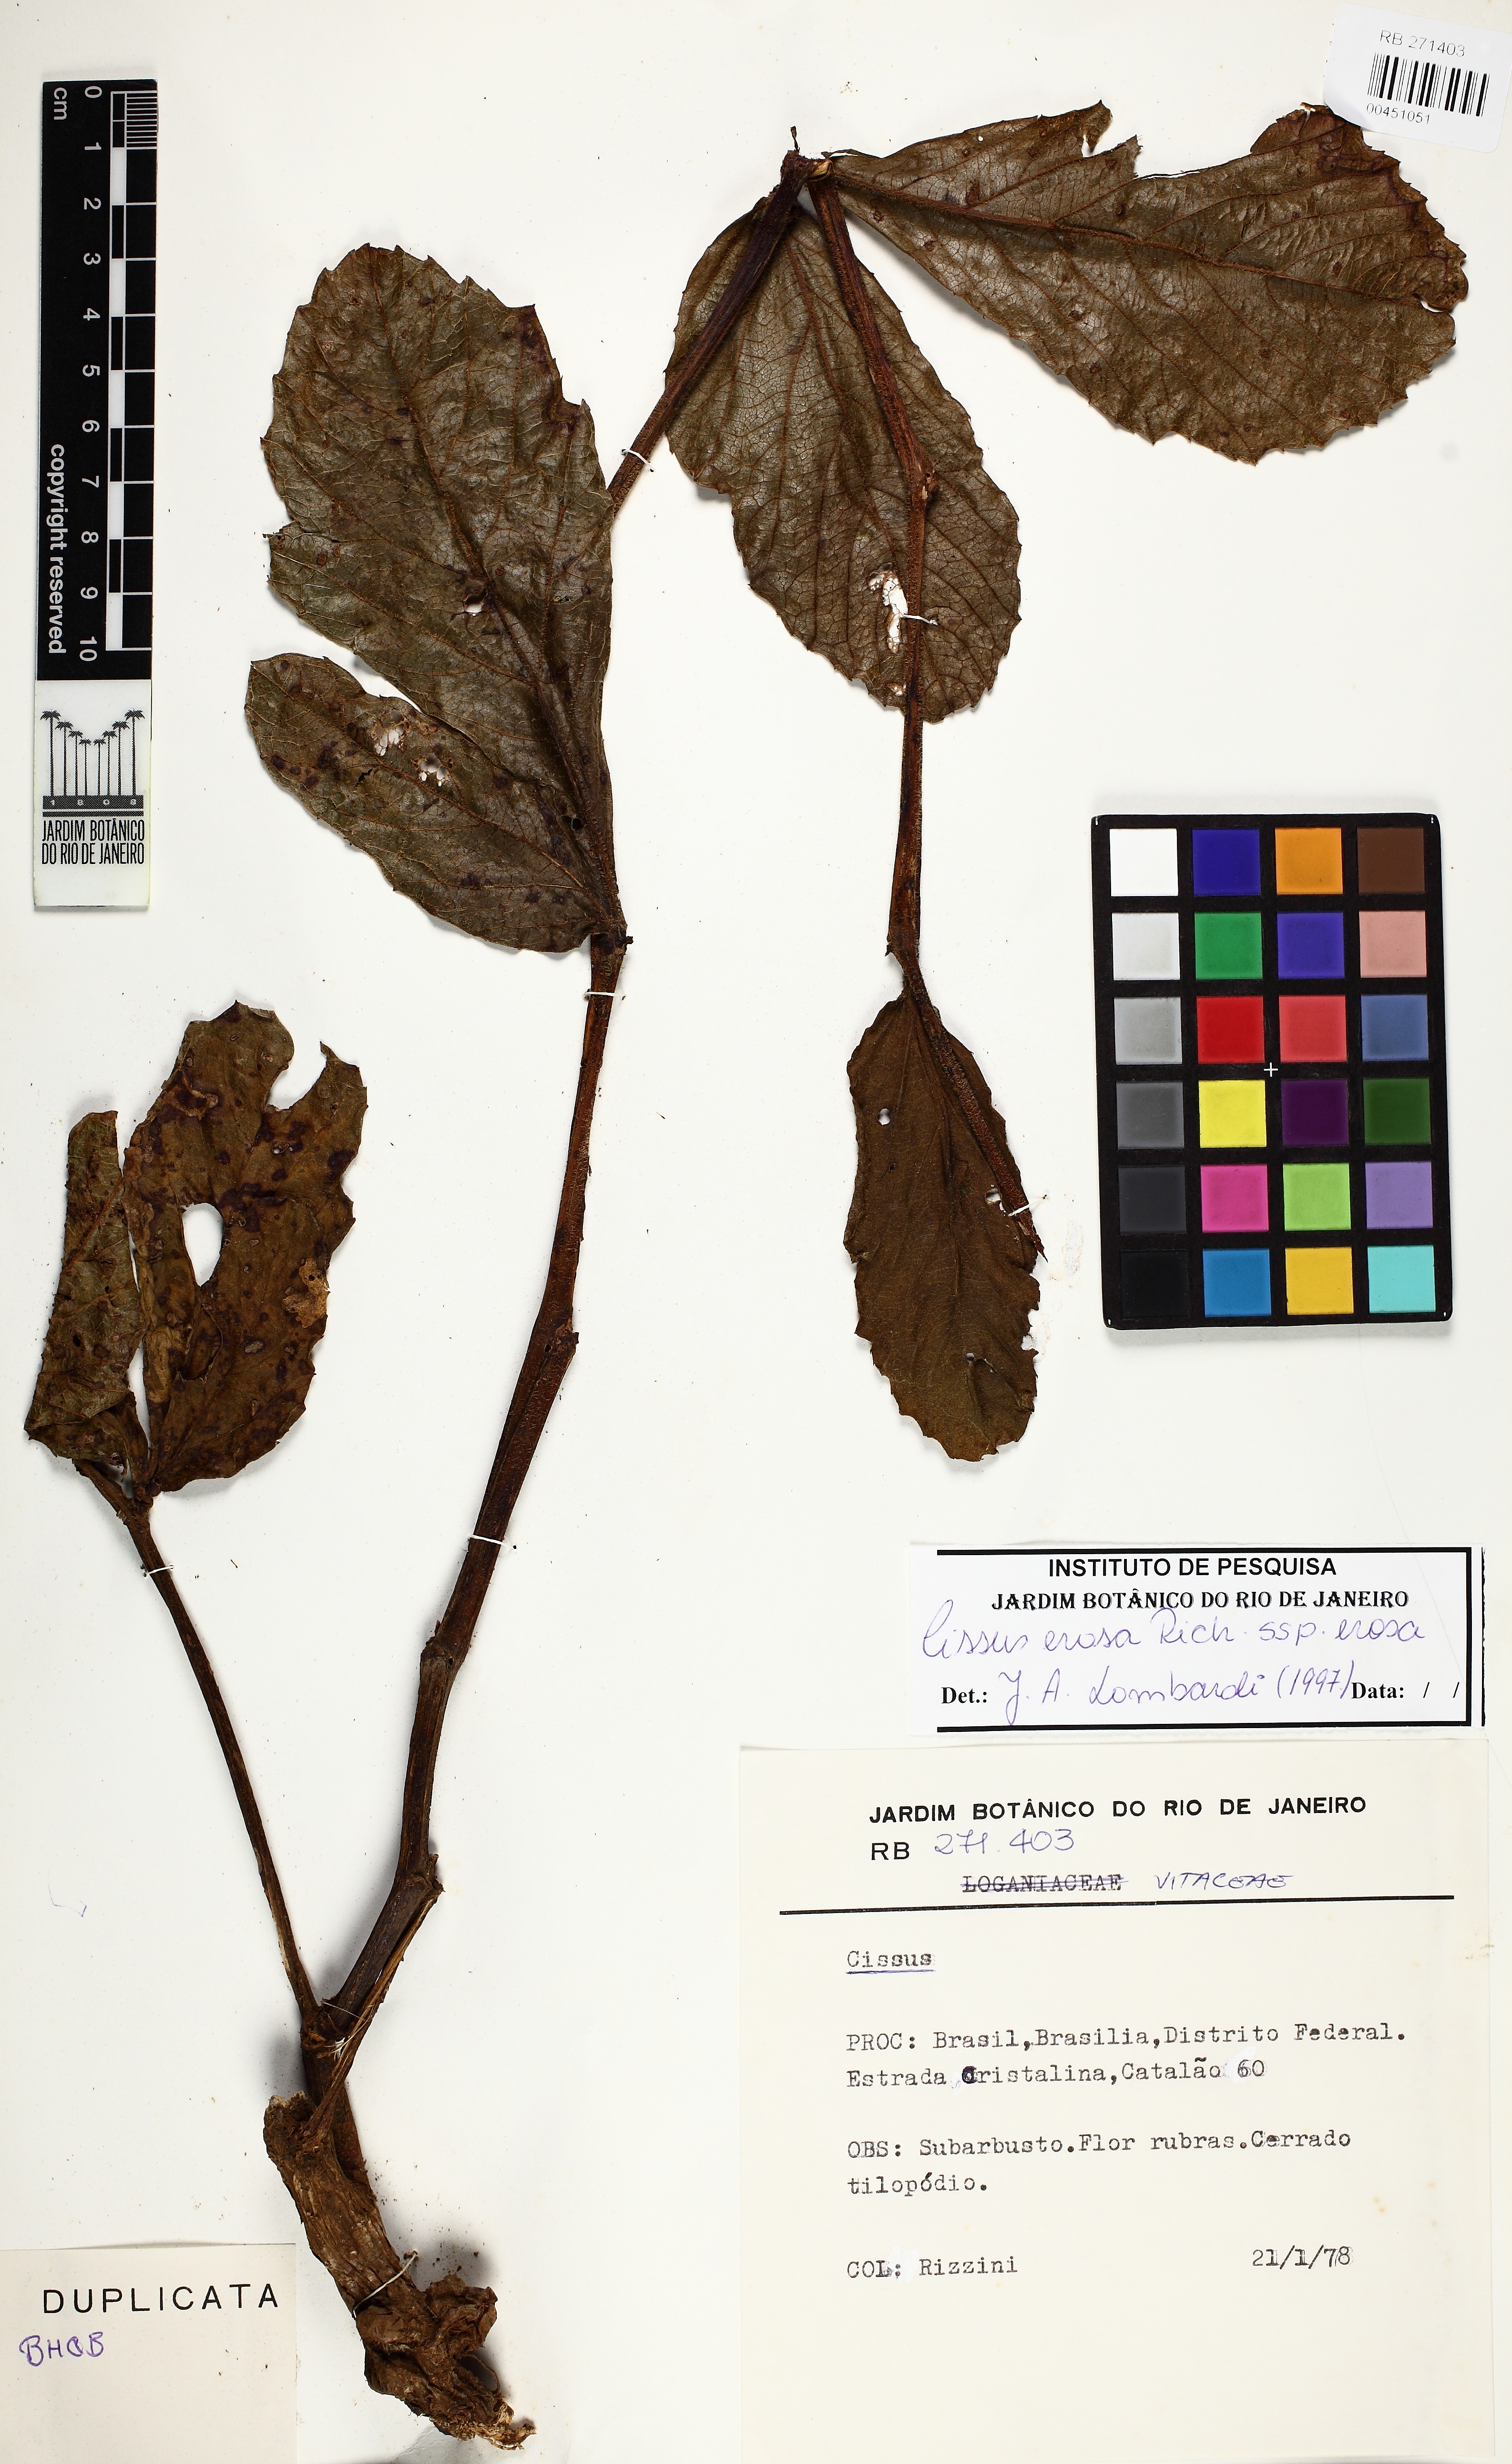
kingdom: Plantae
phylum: Tracheophyta
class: Magnoliopsida
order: Vitales
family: Vitaceae
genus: Cissus
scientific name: Cissus erosa
